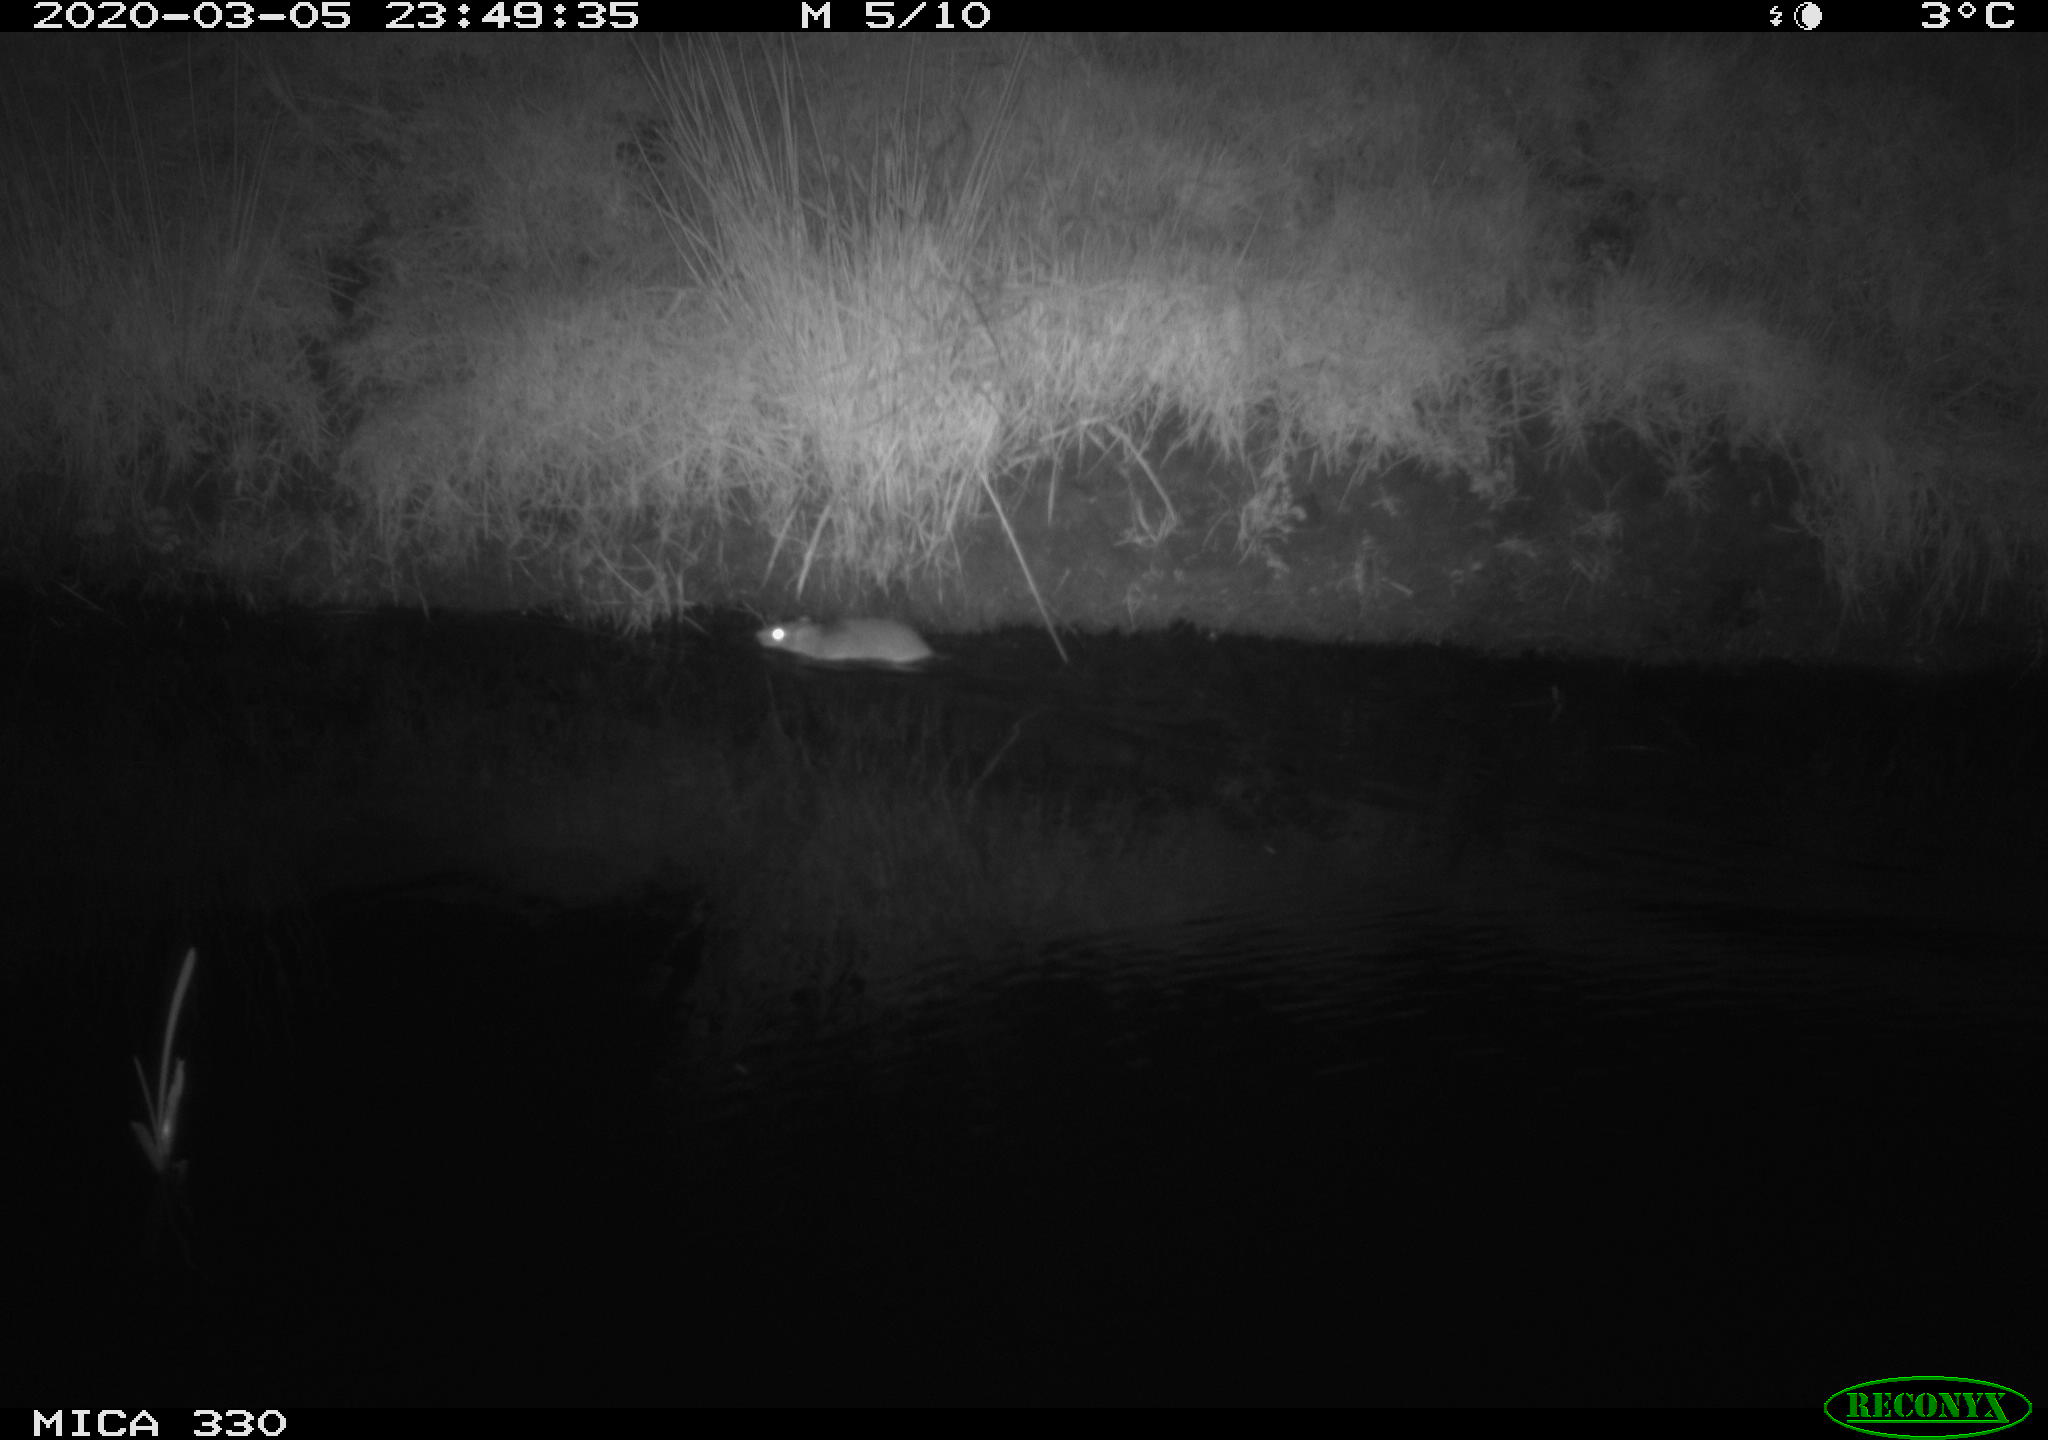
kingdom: Animalia
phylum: Chordata
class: Mammalia
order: Rodentia
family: Muridae
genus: Rattus
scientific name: Rattus norvegicus
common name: Brown rat
